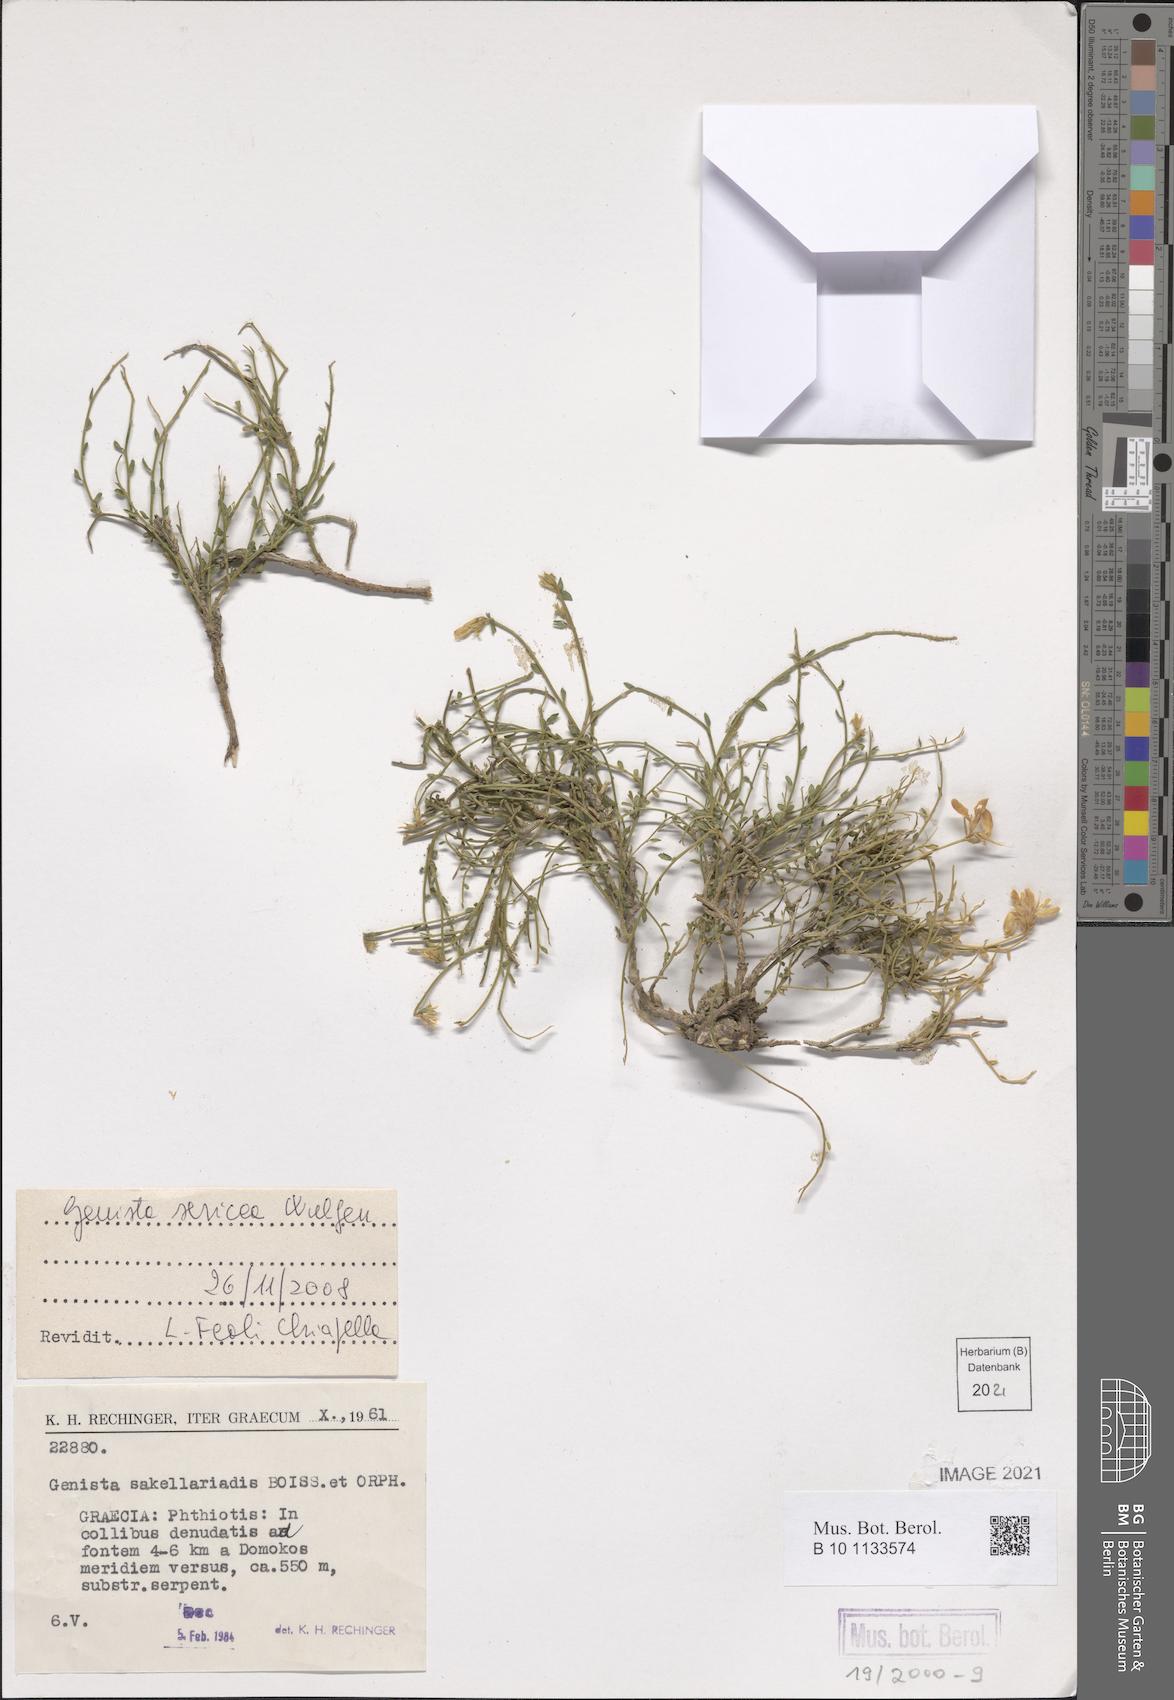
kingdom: Plantae
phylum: Tracheophyta
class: Magnoliopsida
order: Fabales
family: Fabaceae
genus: Genista
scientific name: Genista sericea
